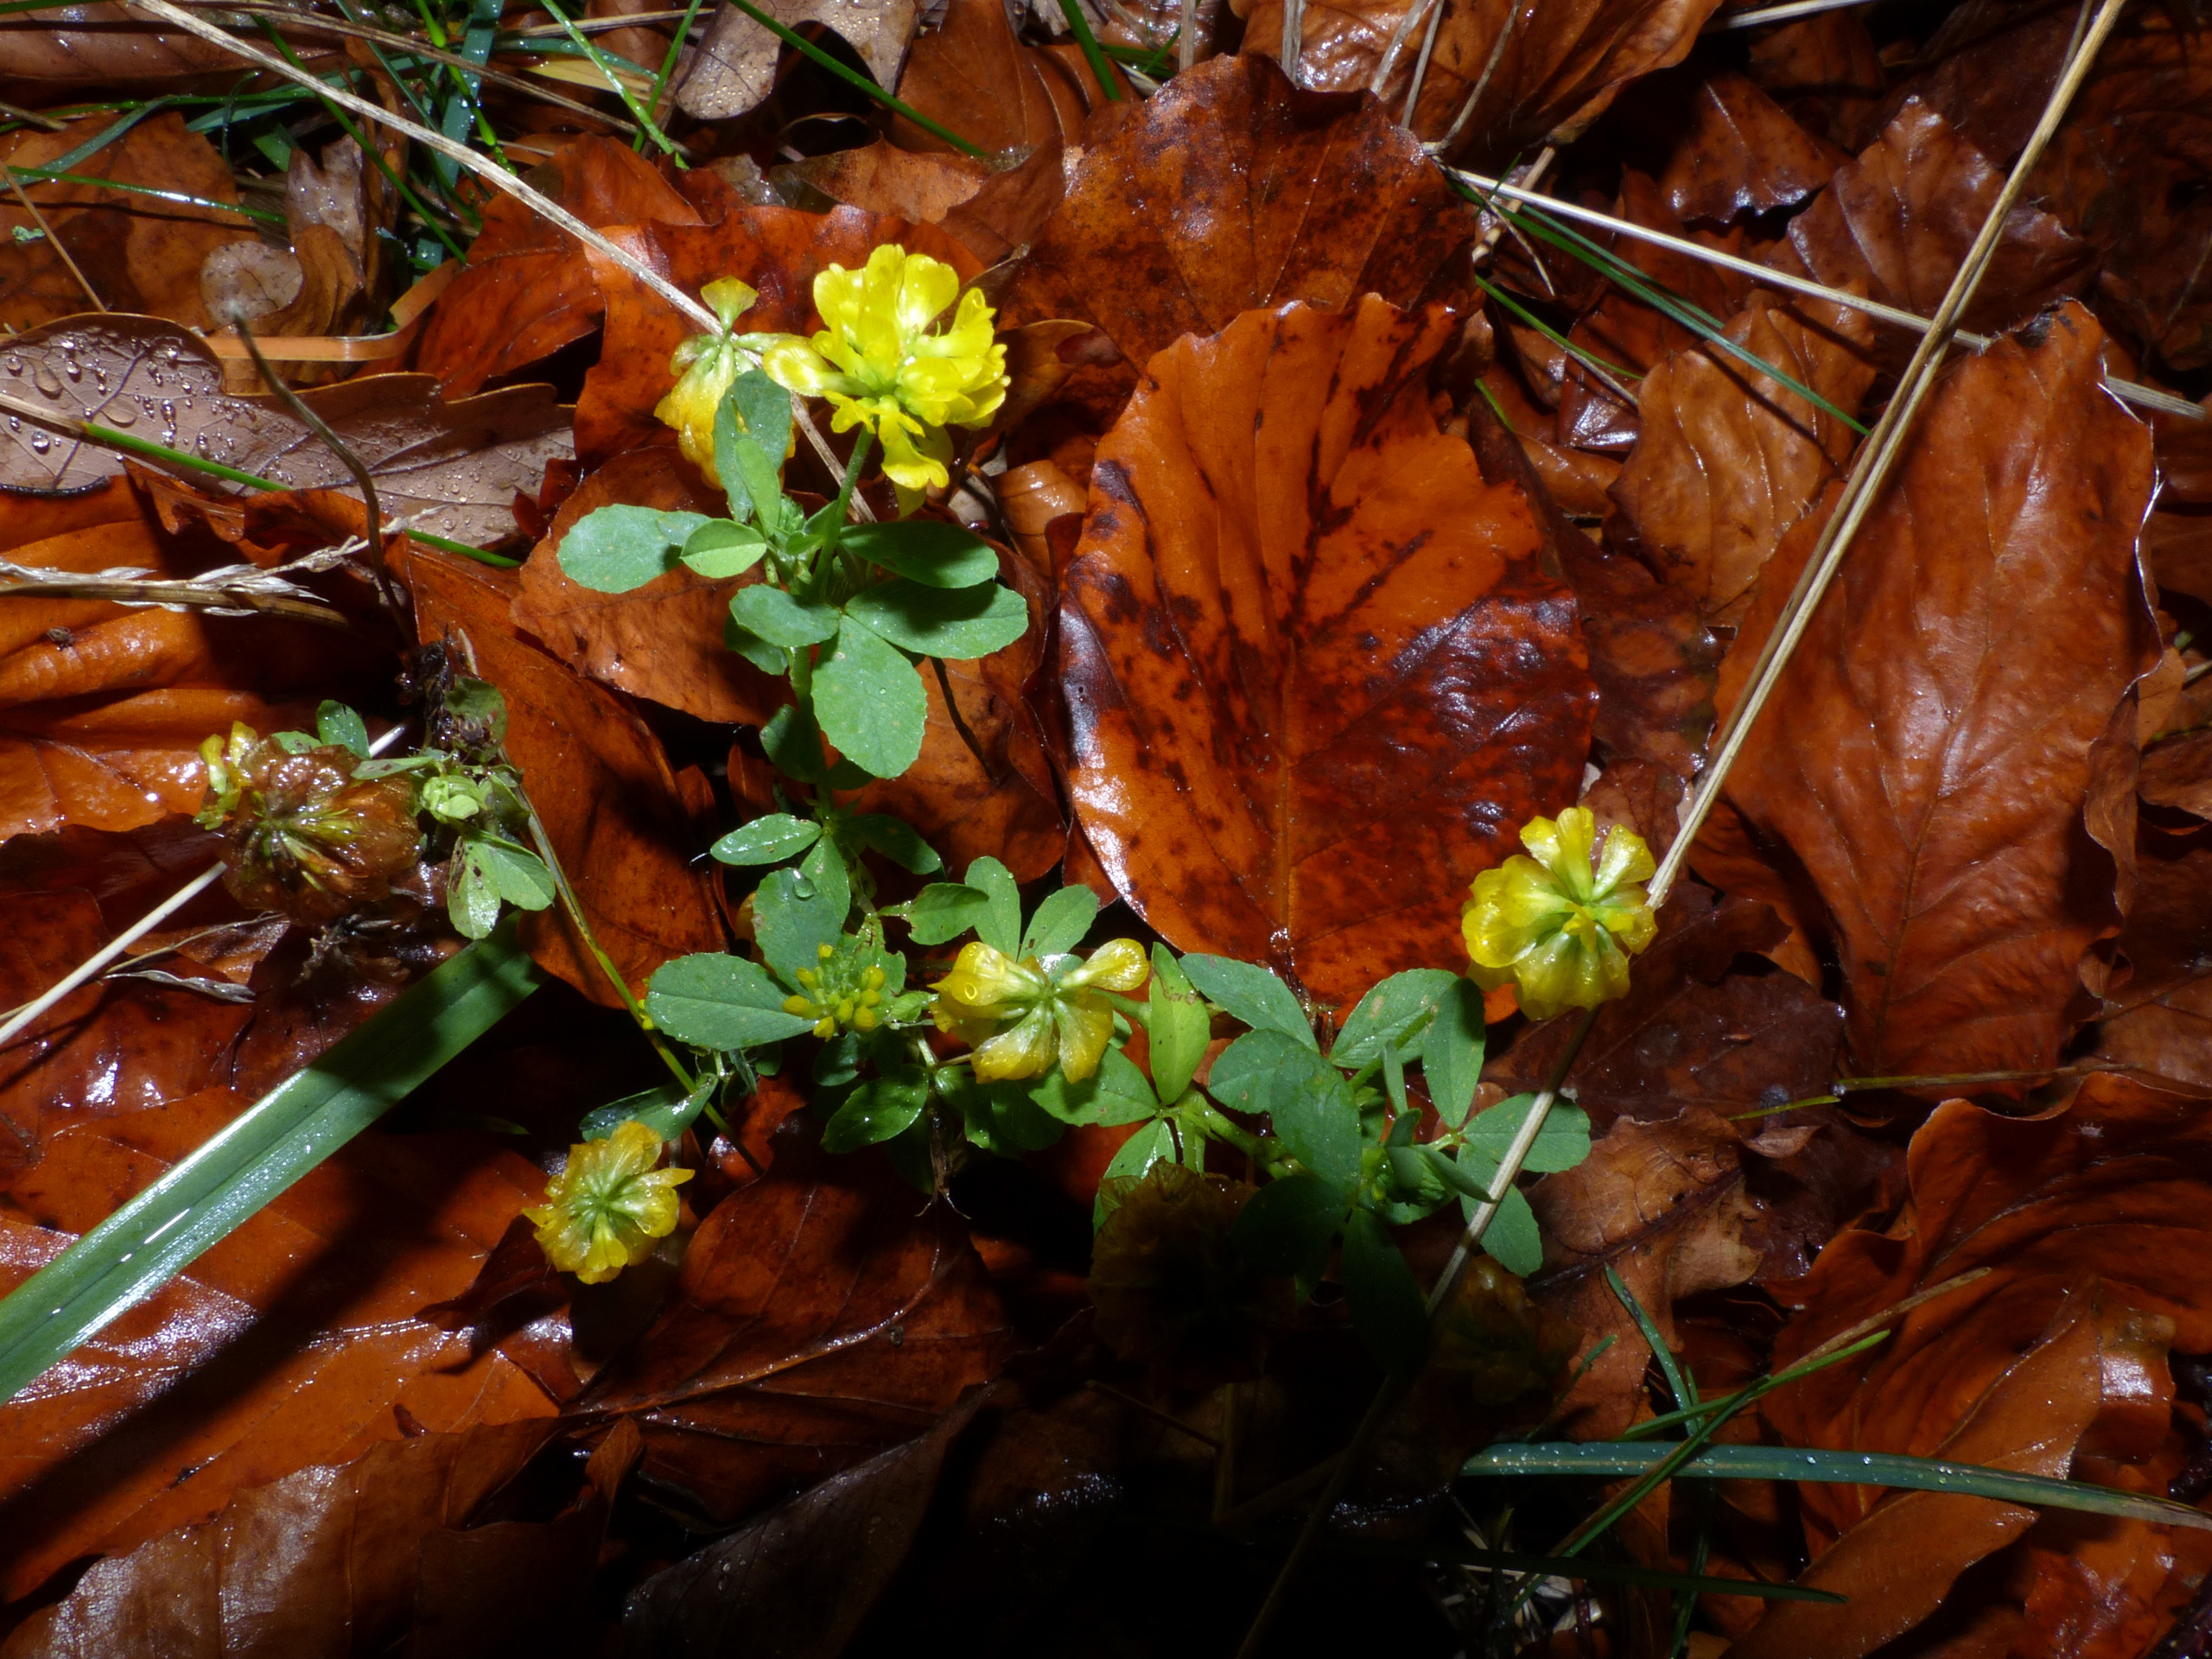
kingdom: Plantae
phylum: Tracheophyta
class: Magnoliopsida
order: Fabales
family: Fabaceae
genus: Trifolium
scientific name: Trifolium aureum
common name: Humle-kløver
